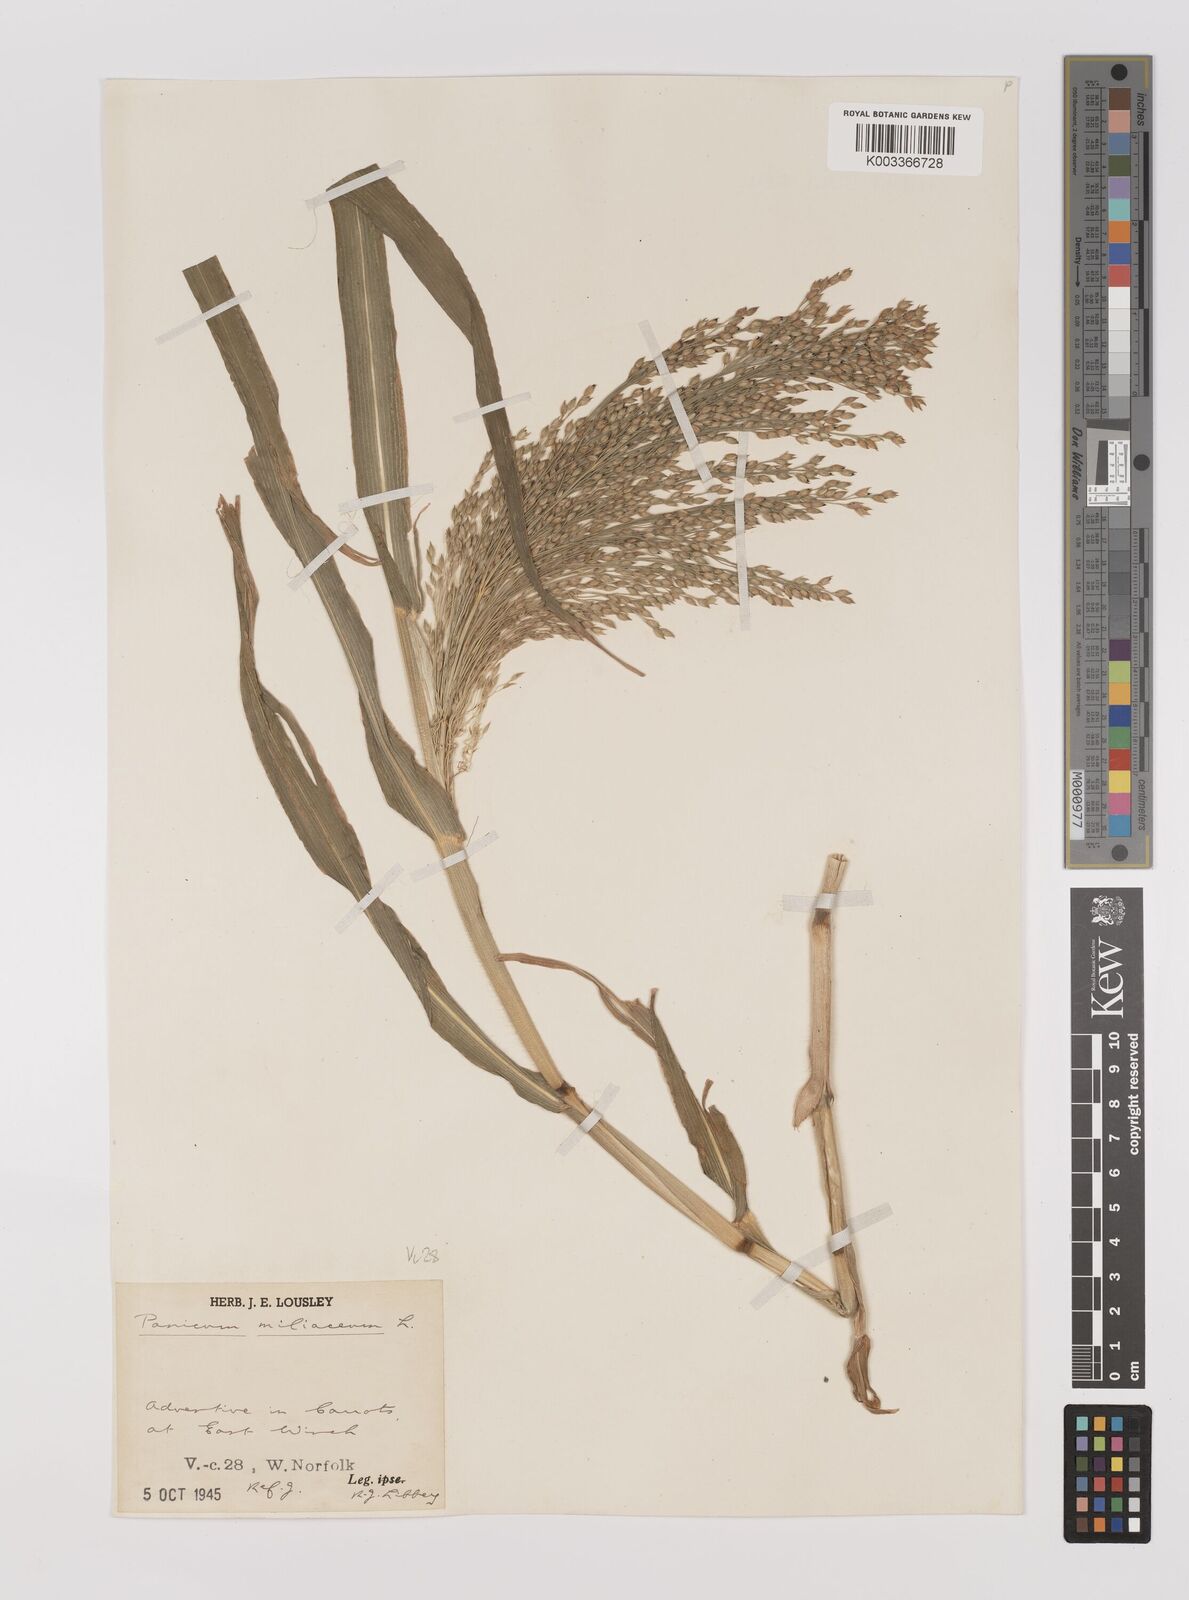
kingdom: Plantae
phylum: Tracheophyta
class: Liliopsida
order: Poales
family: Poaceae
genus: Panicum
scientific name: Panicum miliaceum
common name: Common millet
